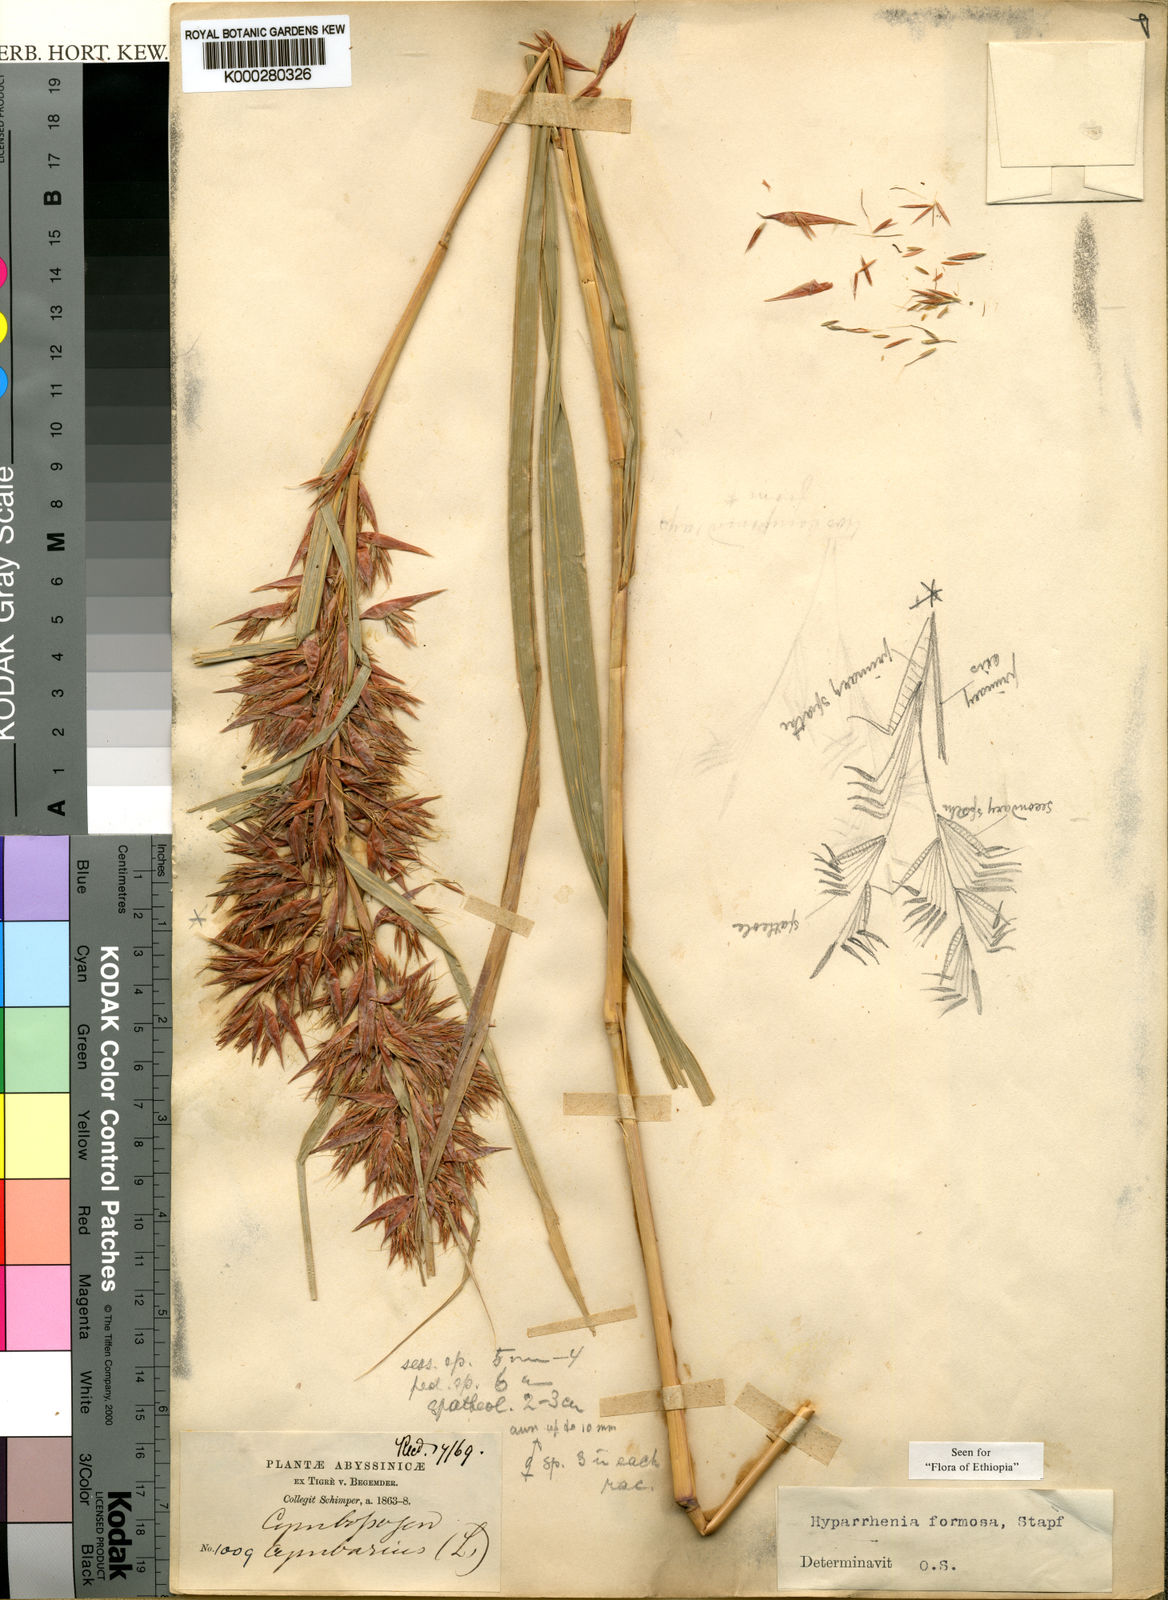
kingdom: Plantae
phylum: Tracheophyta
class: Liliopsida
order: Poales
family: Poaceae
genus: Hyparrhenia
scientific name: Hyparrhenia formosa
